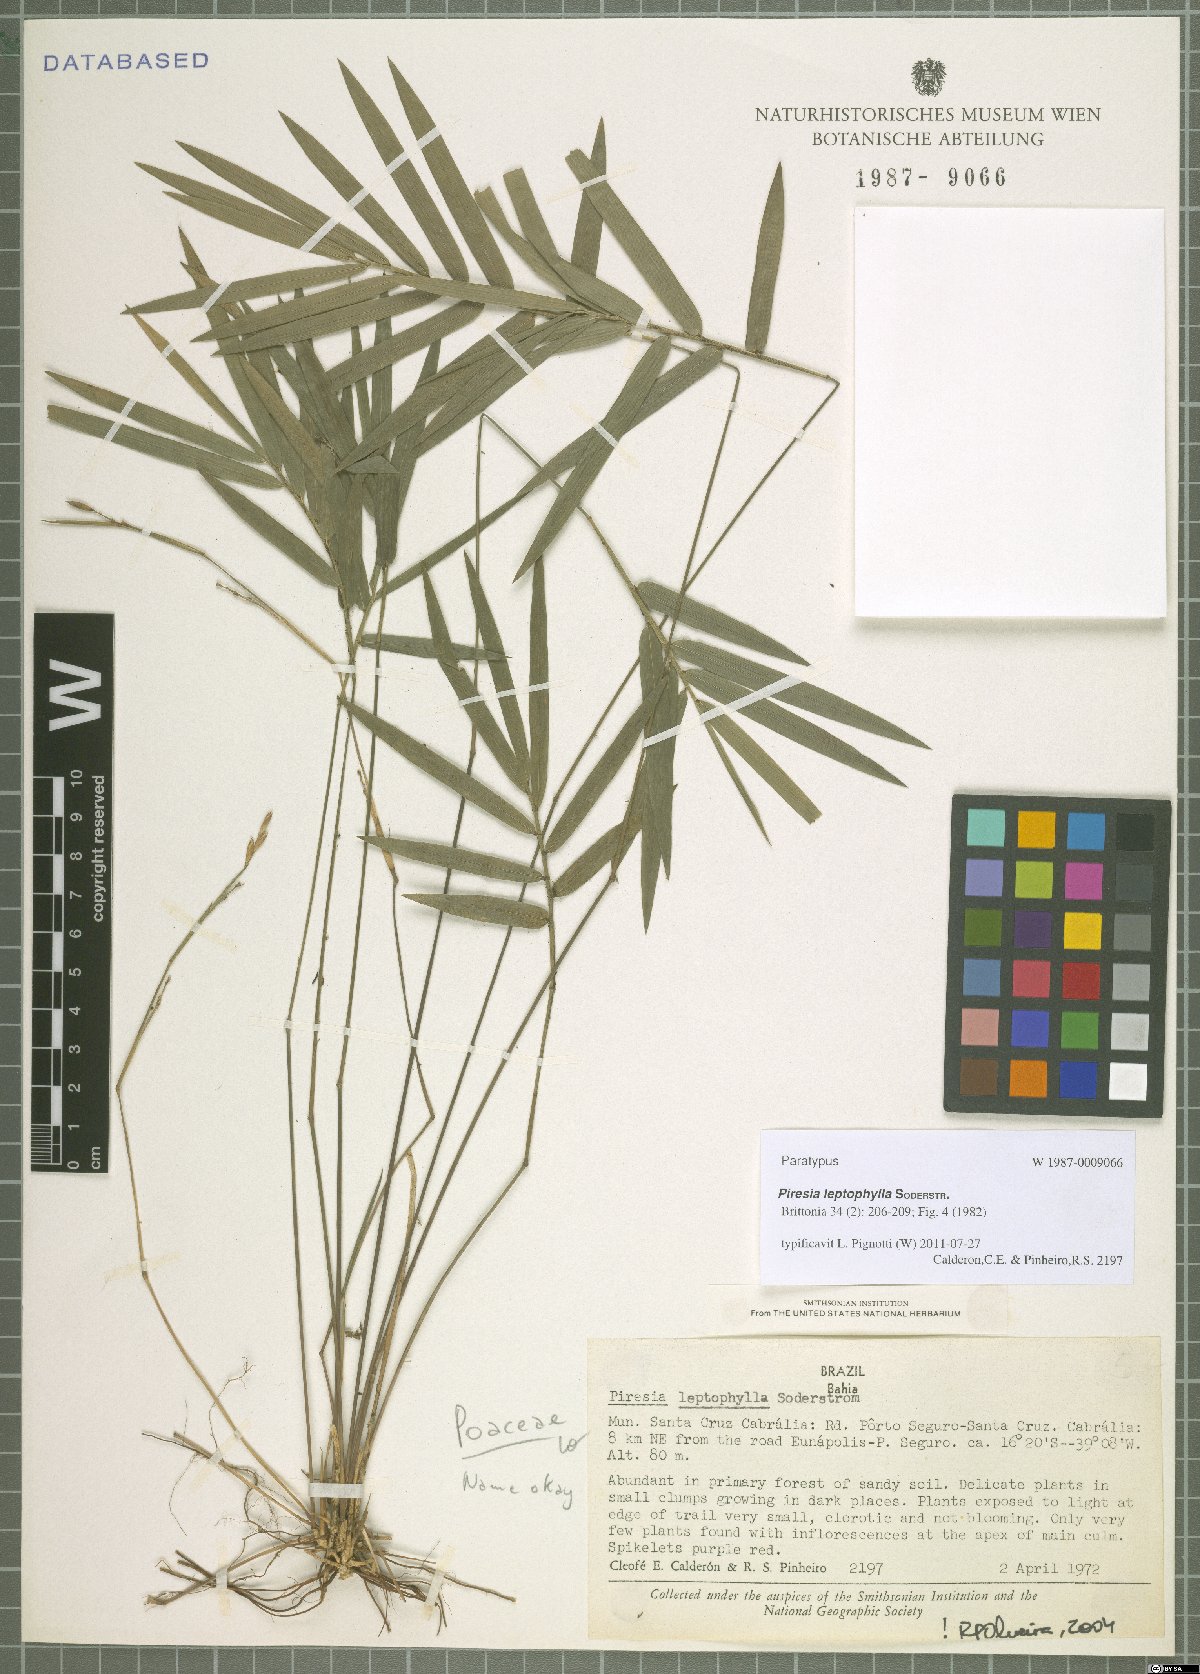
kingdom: Plantae
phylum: Tracheophyta
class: Liliopsida
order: Poales
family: Poaceae
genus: Piresia
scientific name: Piresia leptophylla
